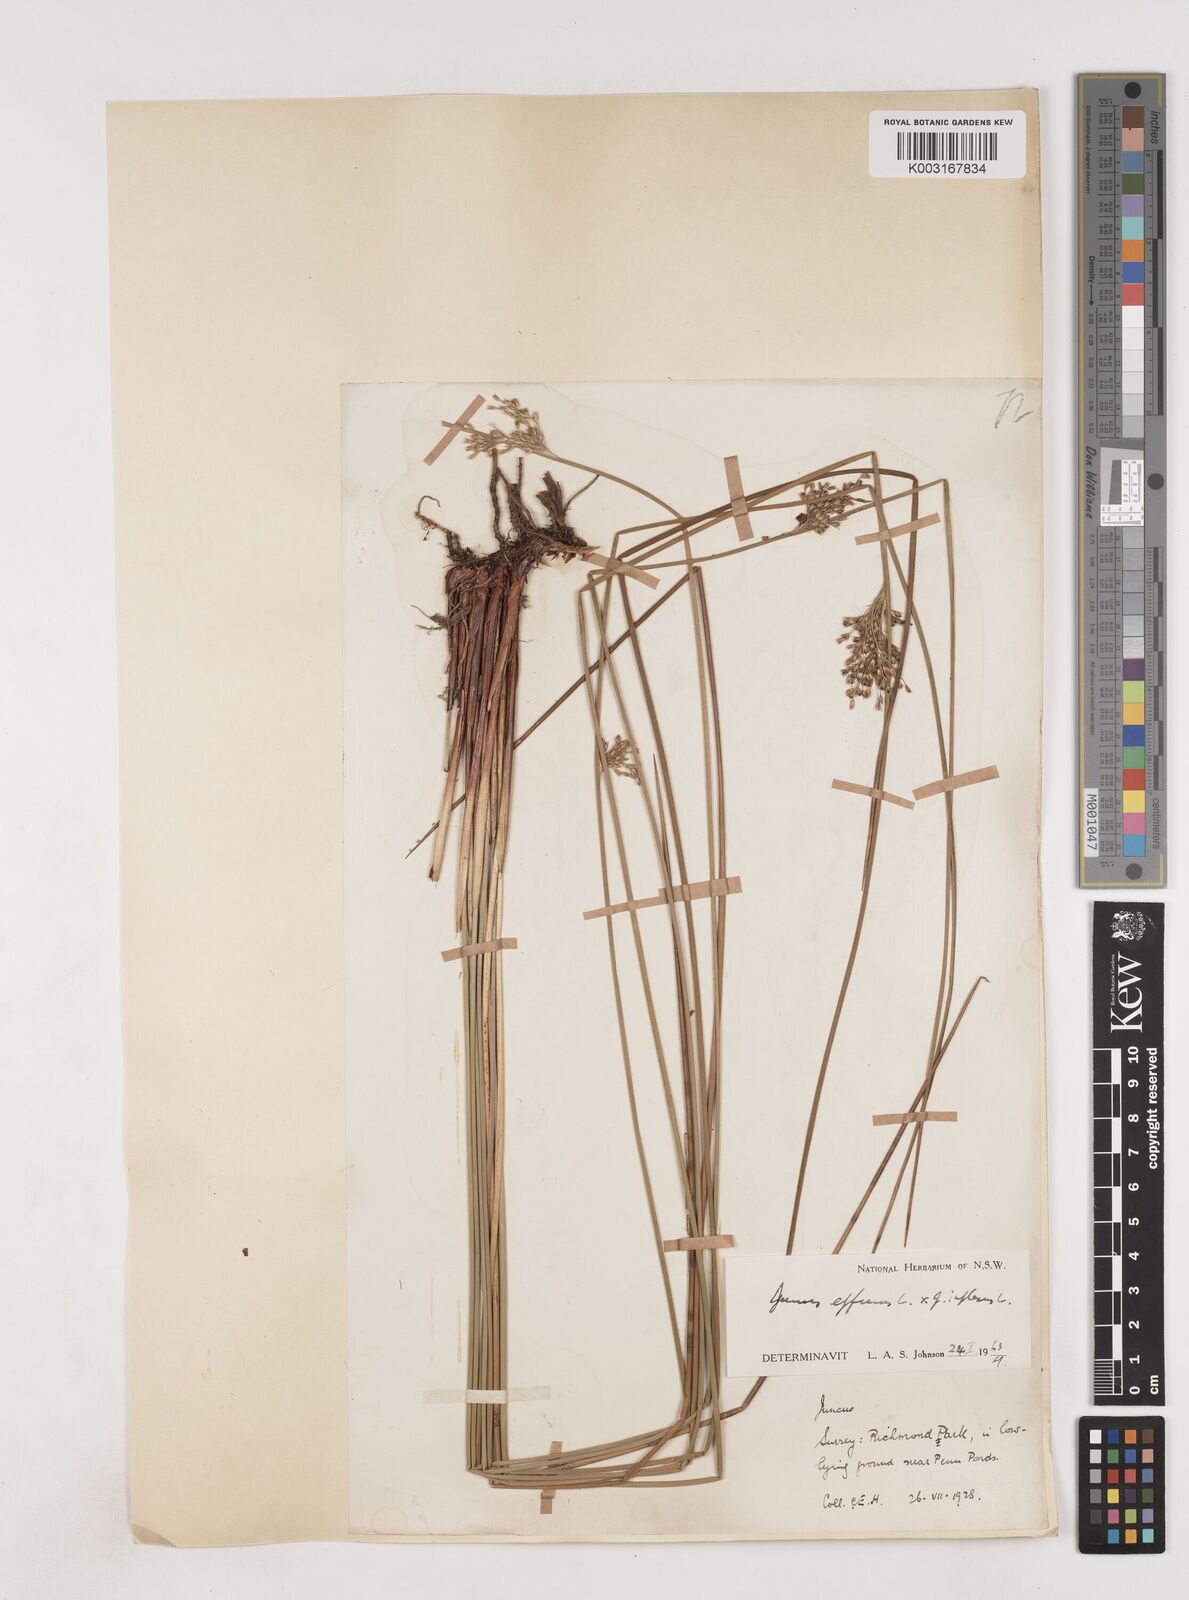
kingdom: Plantae
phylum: Tracheophyta
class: Liliopsida
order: Poales
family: Juncaceae
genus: Juncus
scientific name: Juncus effusus
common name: Soft rush
